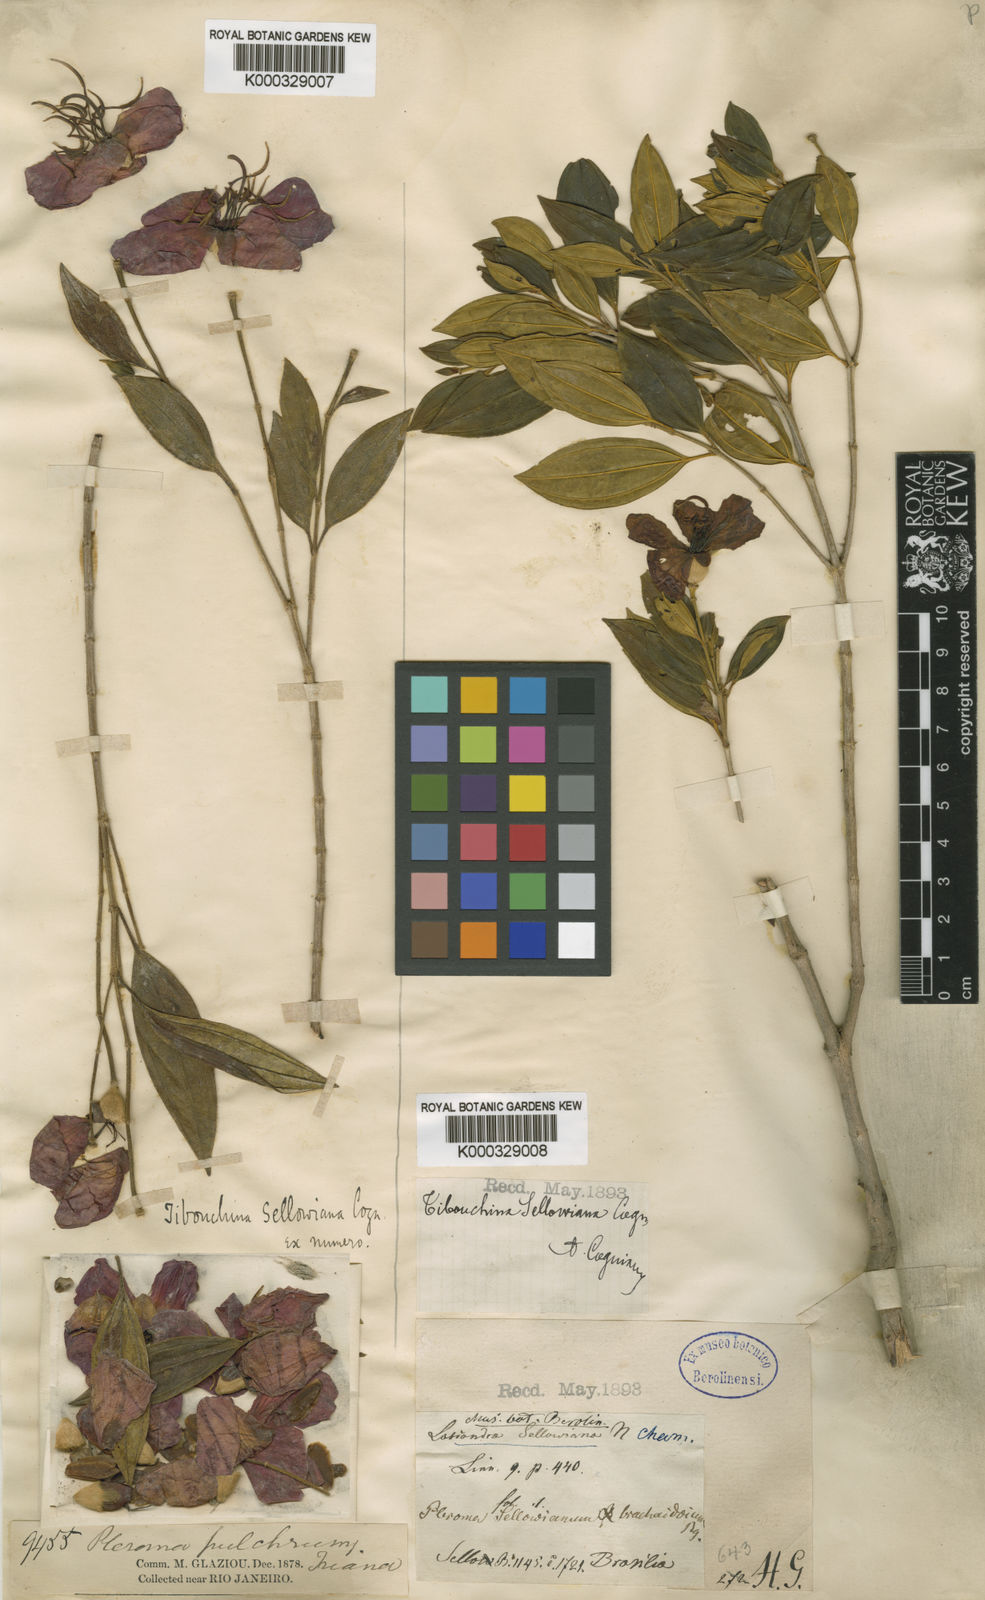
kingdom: Plantae
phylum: Tracheophyta
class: Magnoliopsida
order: Myrtales
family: Melastomataceae
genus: Pleroma
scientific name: Pleroma sellowianum
